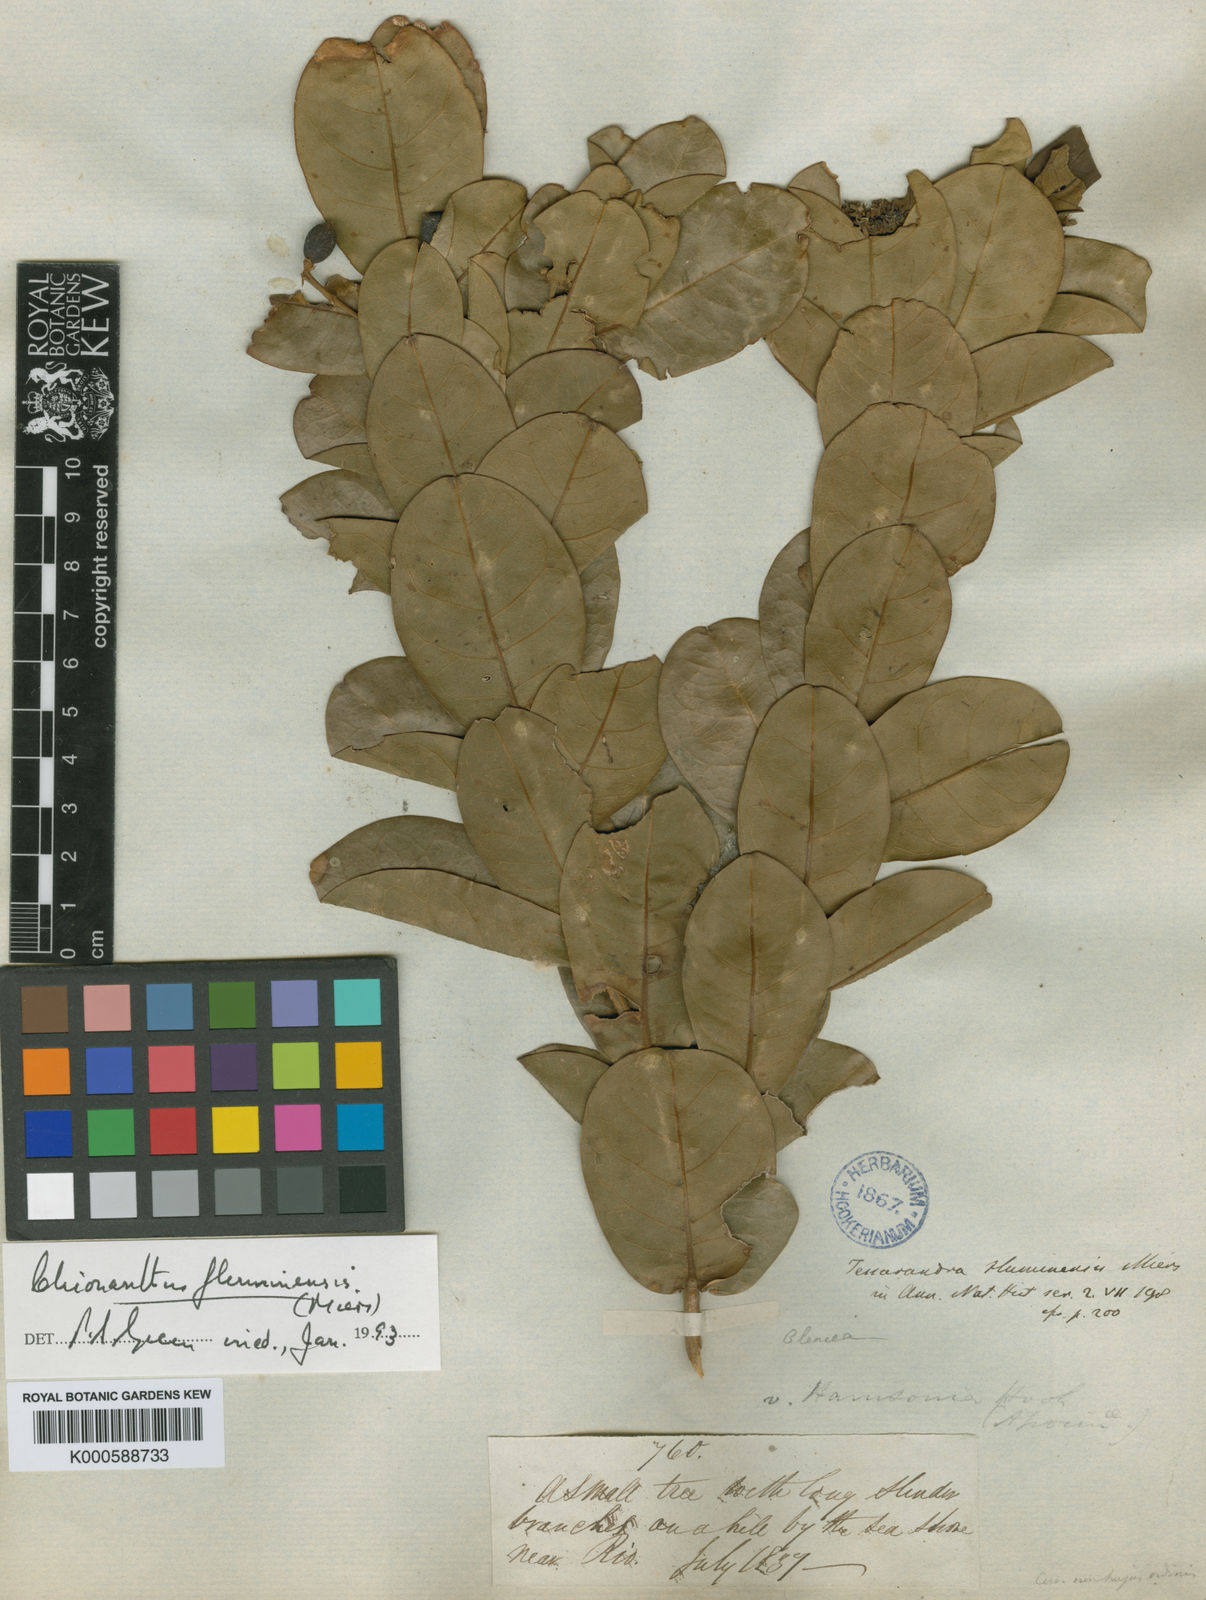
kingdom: Plantae
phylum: Tracheophyta
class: Magnoliopsida
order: Lamiales
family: Oleaceae
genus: Chionanthus
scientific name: Chionanthus fluminensis
